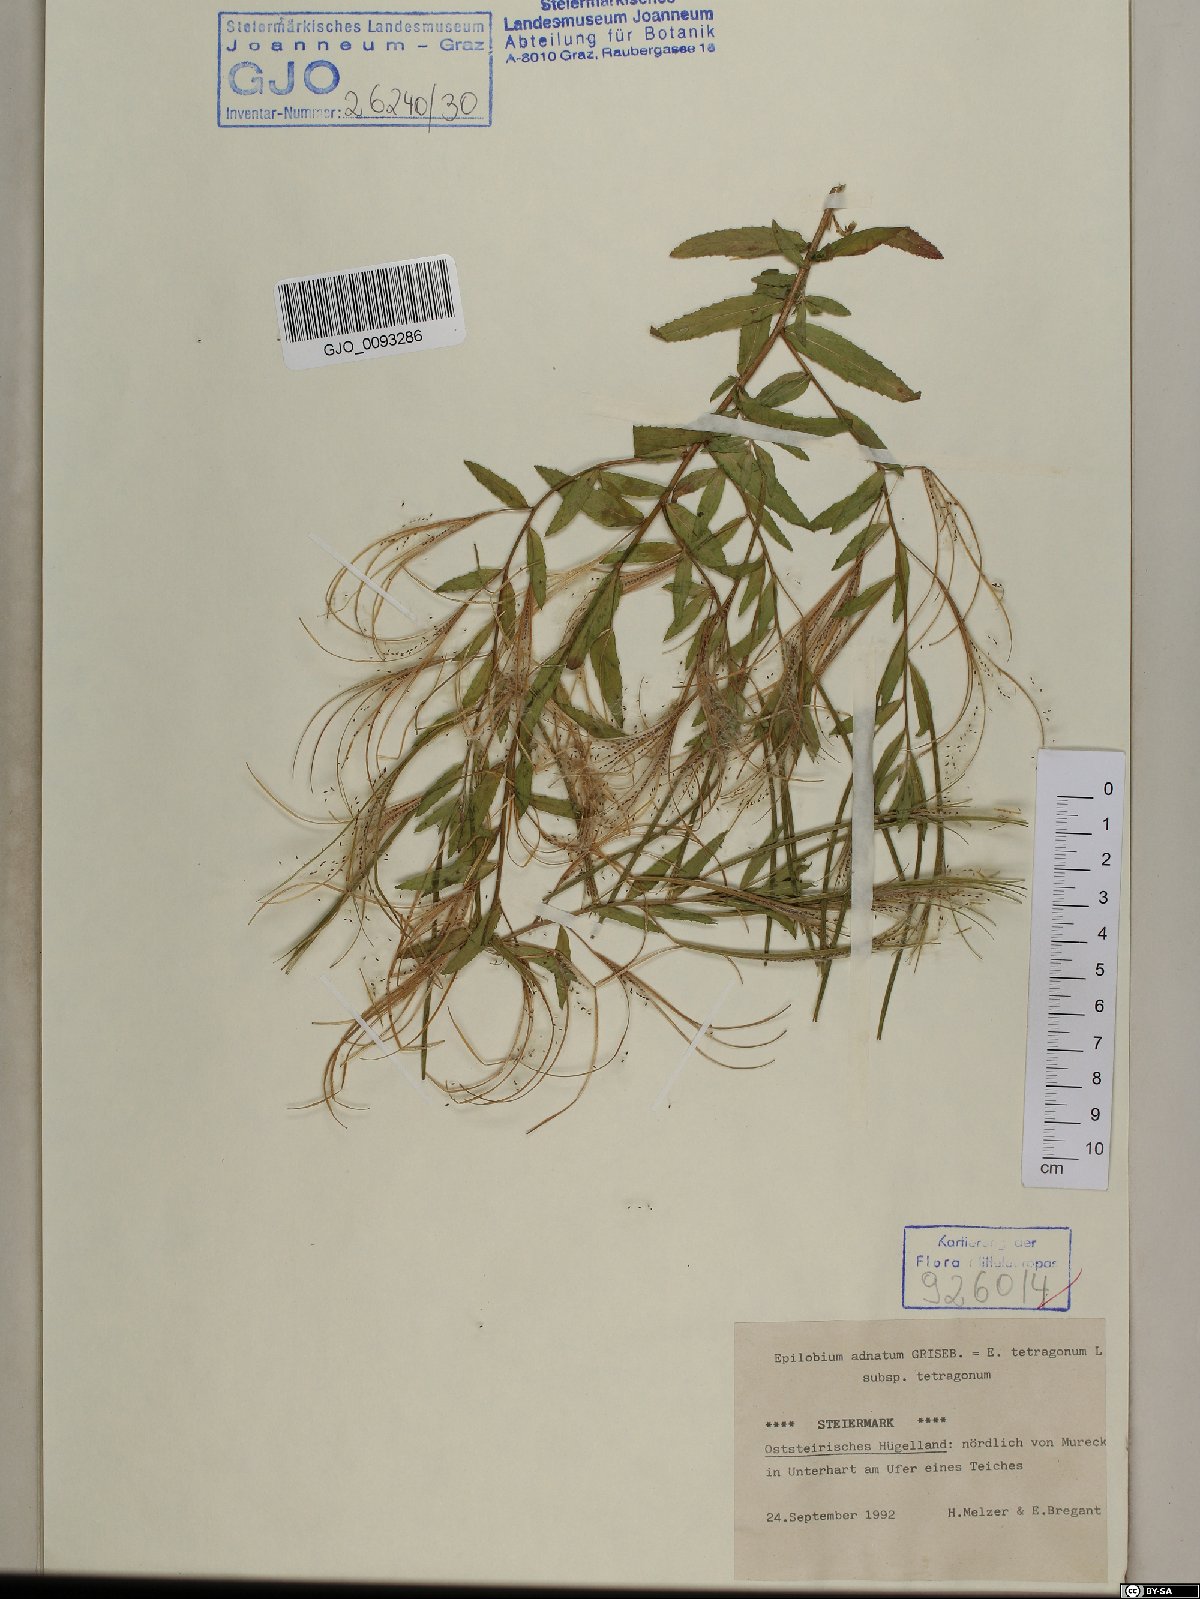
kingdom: Plantae
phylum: Tracheophyta
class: Magnoliopsida
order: Myrtales
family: Onagraceae
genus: Epilobium
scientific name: Epilobium tetragonum
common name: Square-stemmed willowherb
